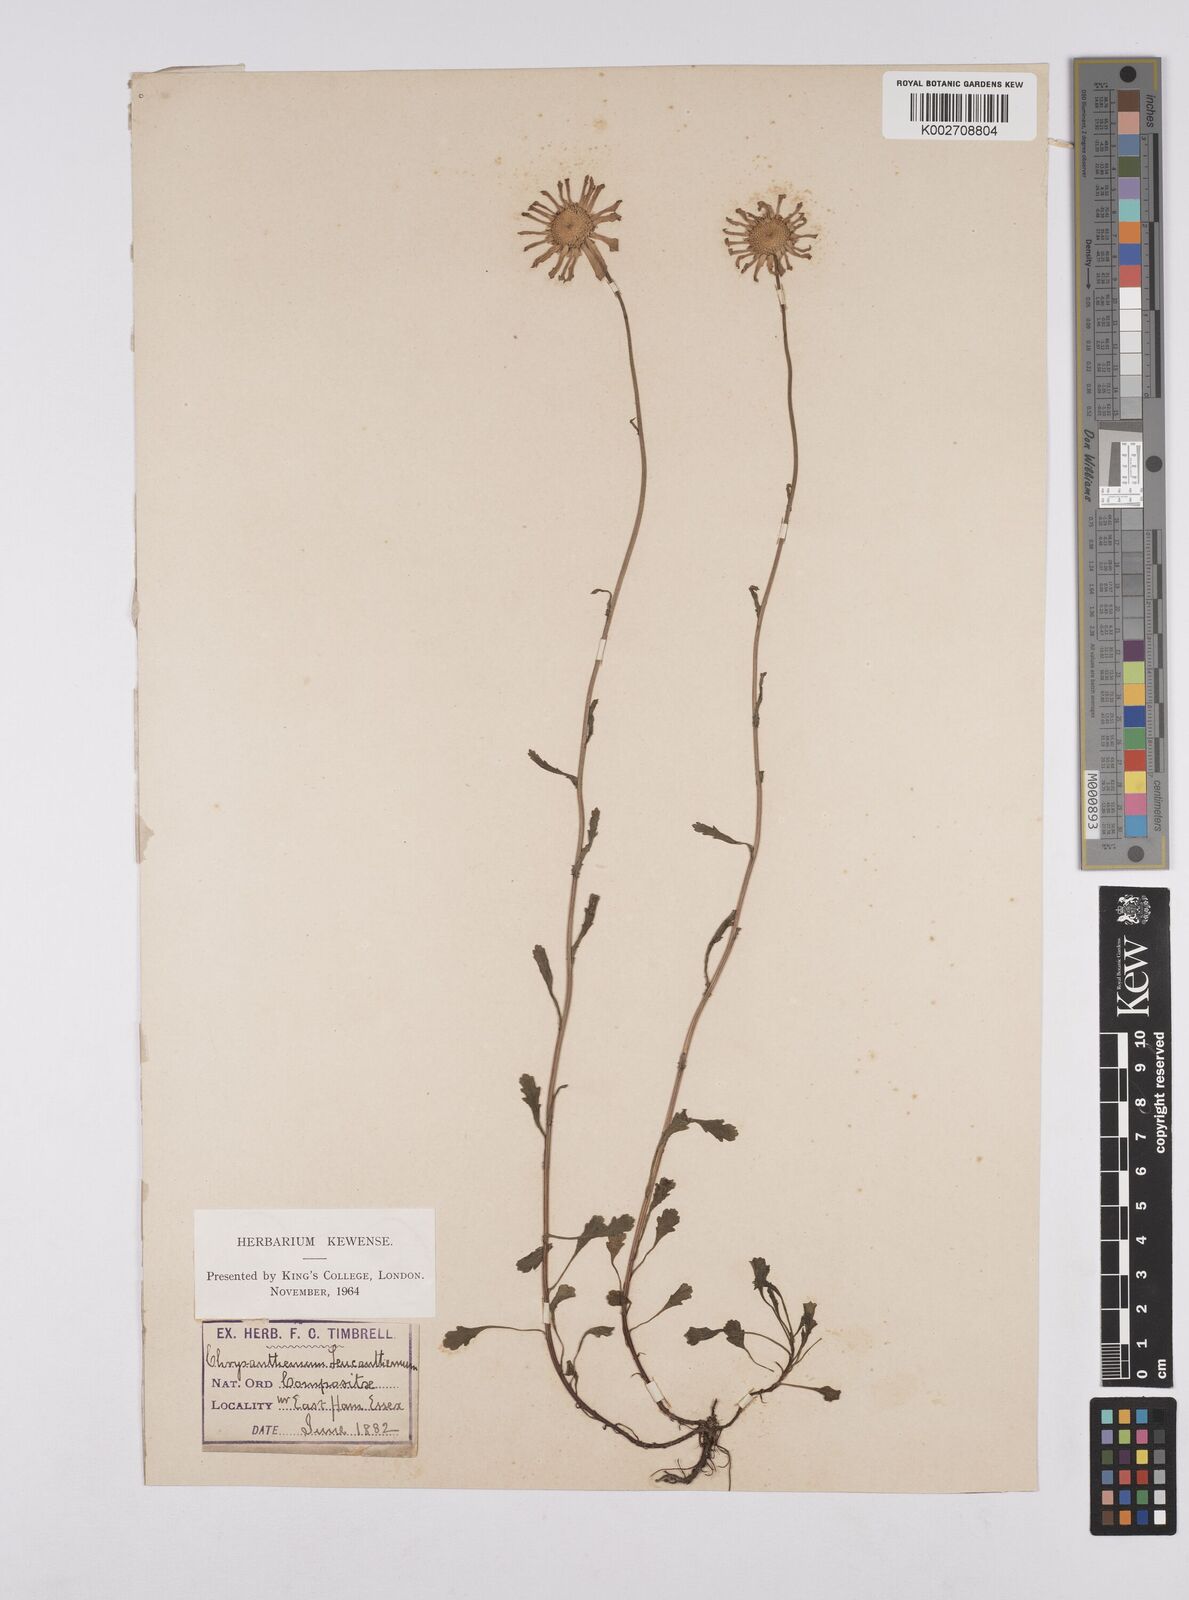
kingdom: Plantae
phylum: Tracheophyta
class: Magnoliopsida
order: Asterales
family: Asteraceae
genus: Leucanthemum
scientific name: Leucanthemum vulgare
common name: Oxeye daisy
